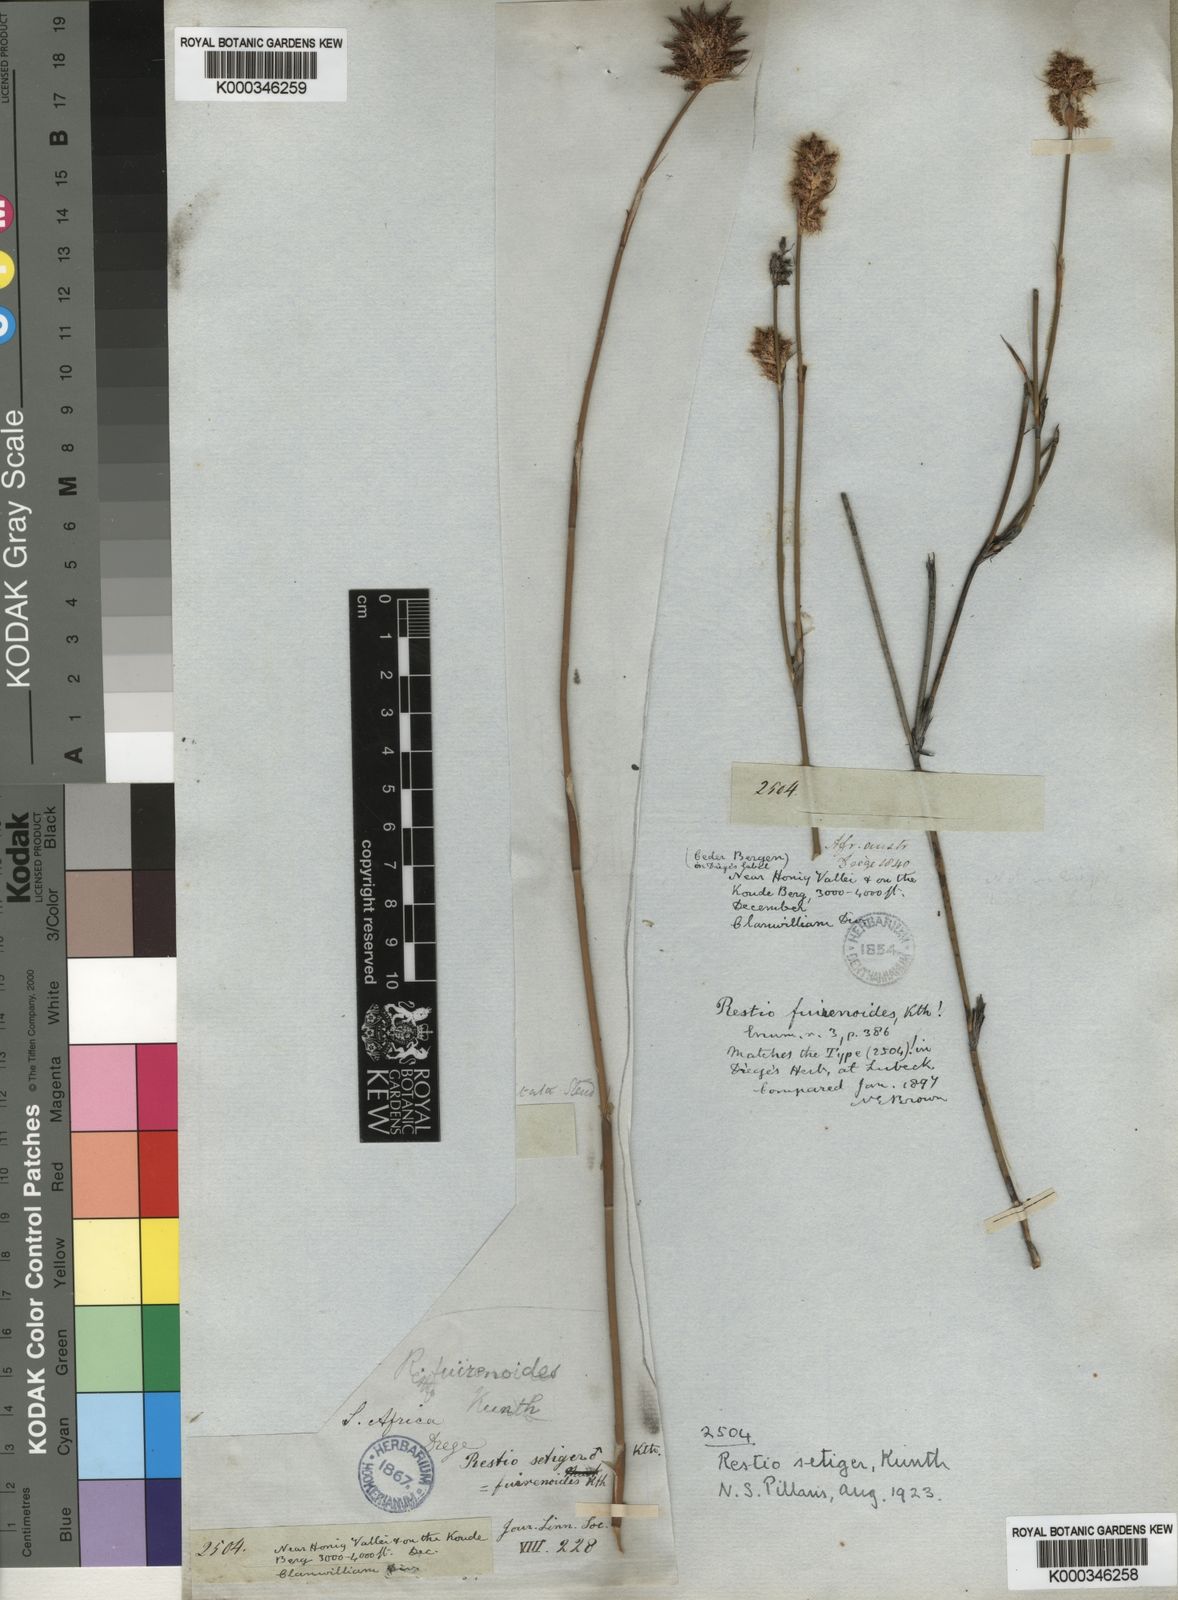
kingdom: Plantae
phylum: Tracheophyta
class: Liliopsida
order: Poales
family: Restionaceae
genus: Restio
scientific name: Restio setiger
